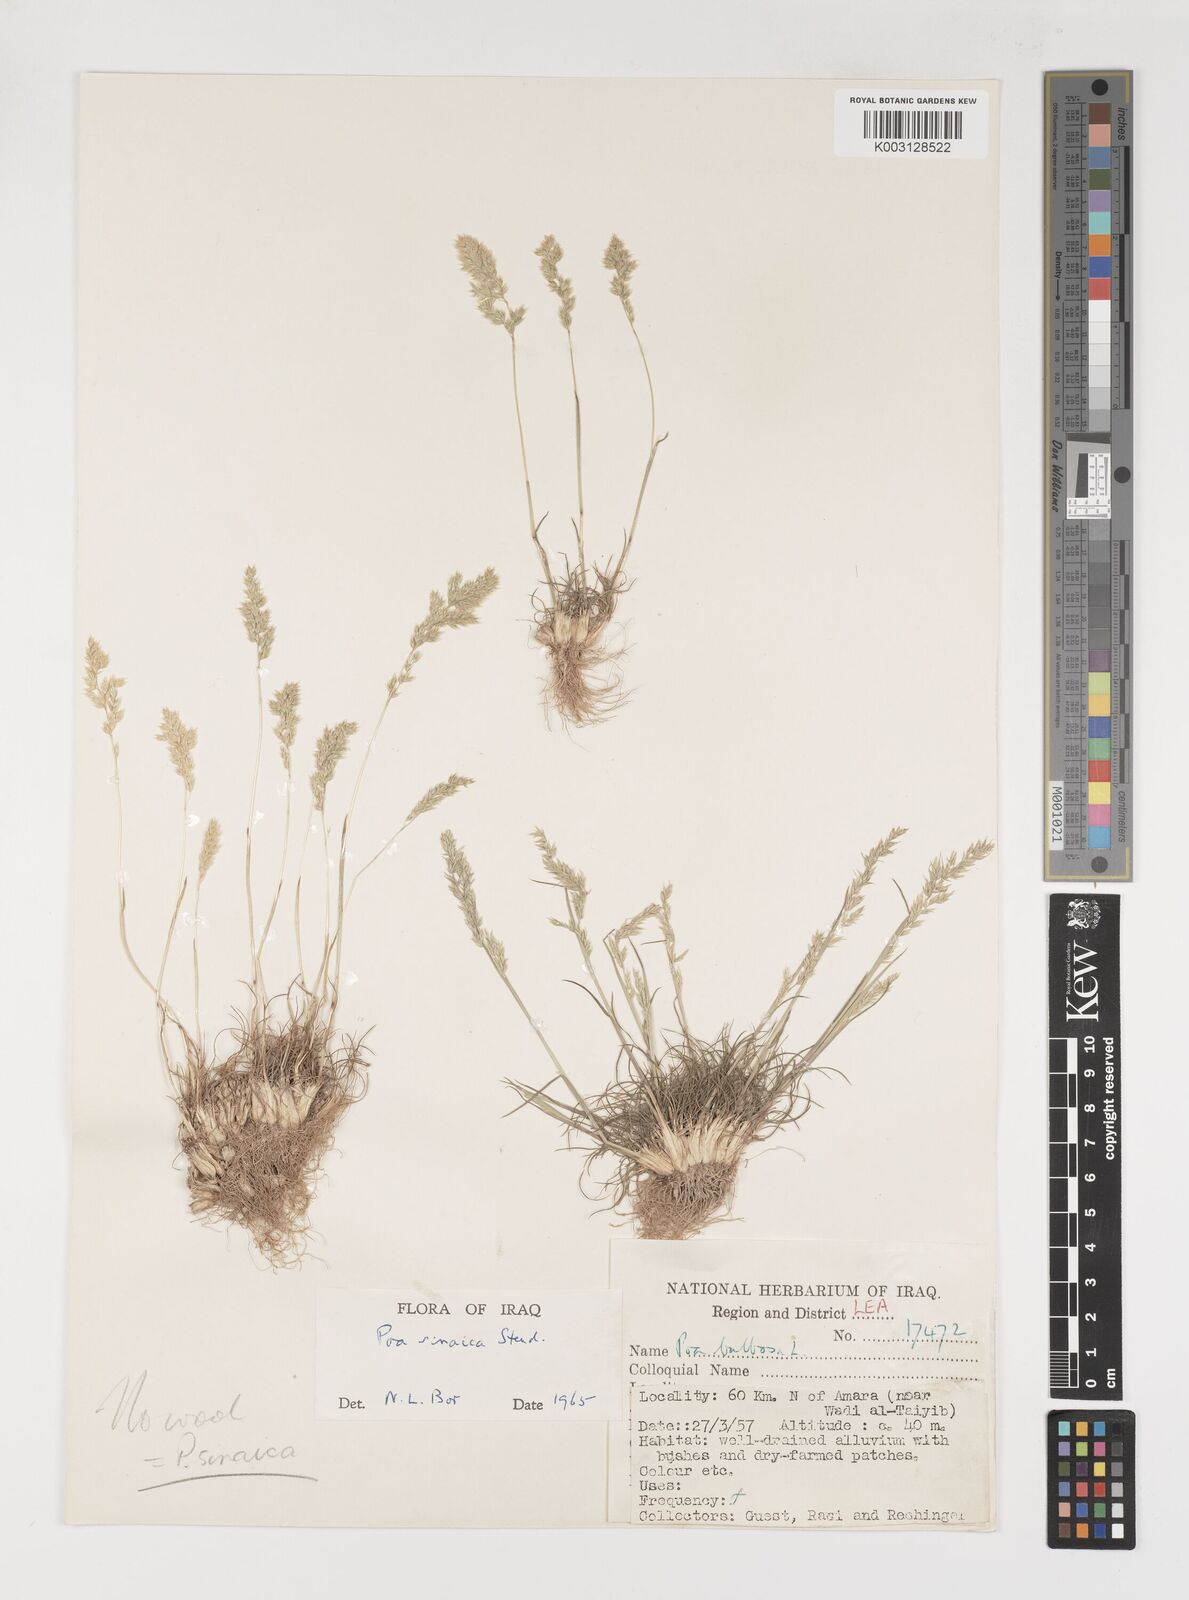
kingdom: Plantae
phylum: Tracheophyta
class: Liliopsida
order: Poales
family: Poaceae
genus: Poa
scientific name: Poa sinaica
